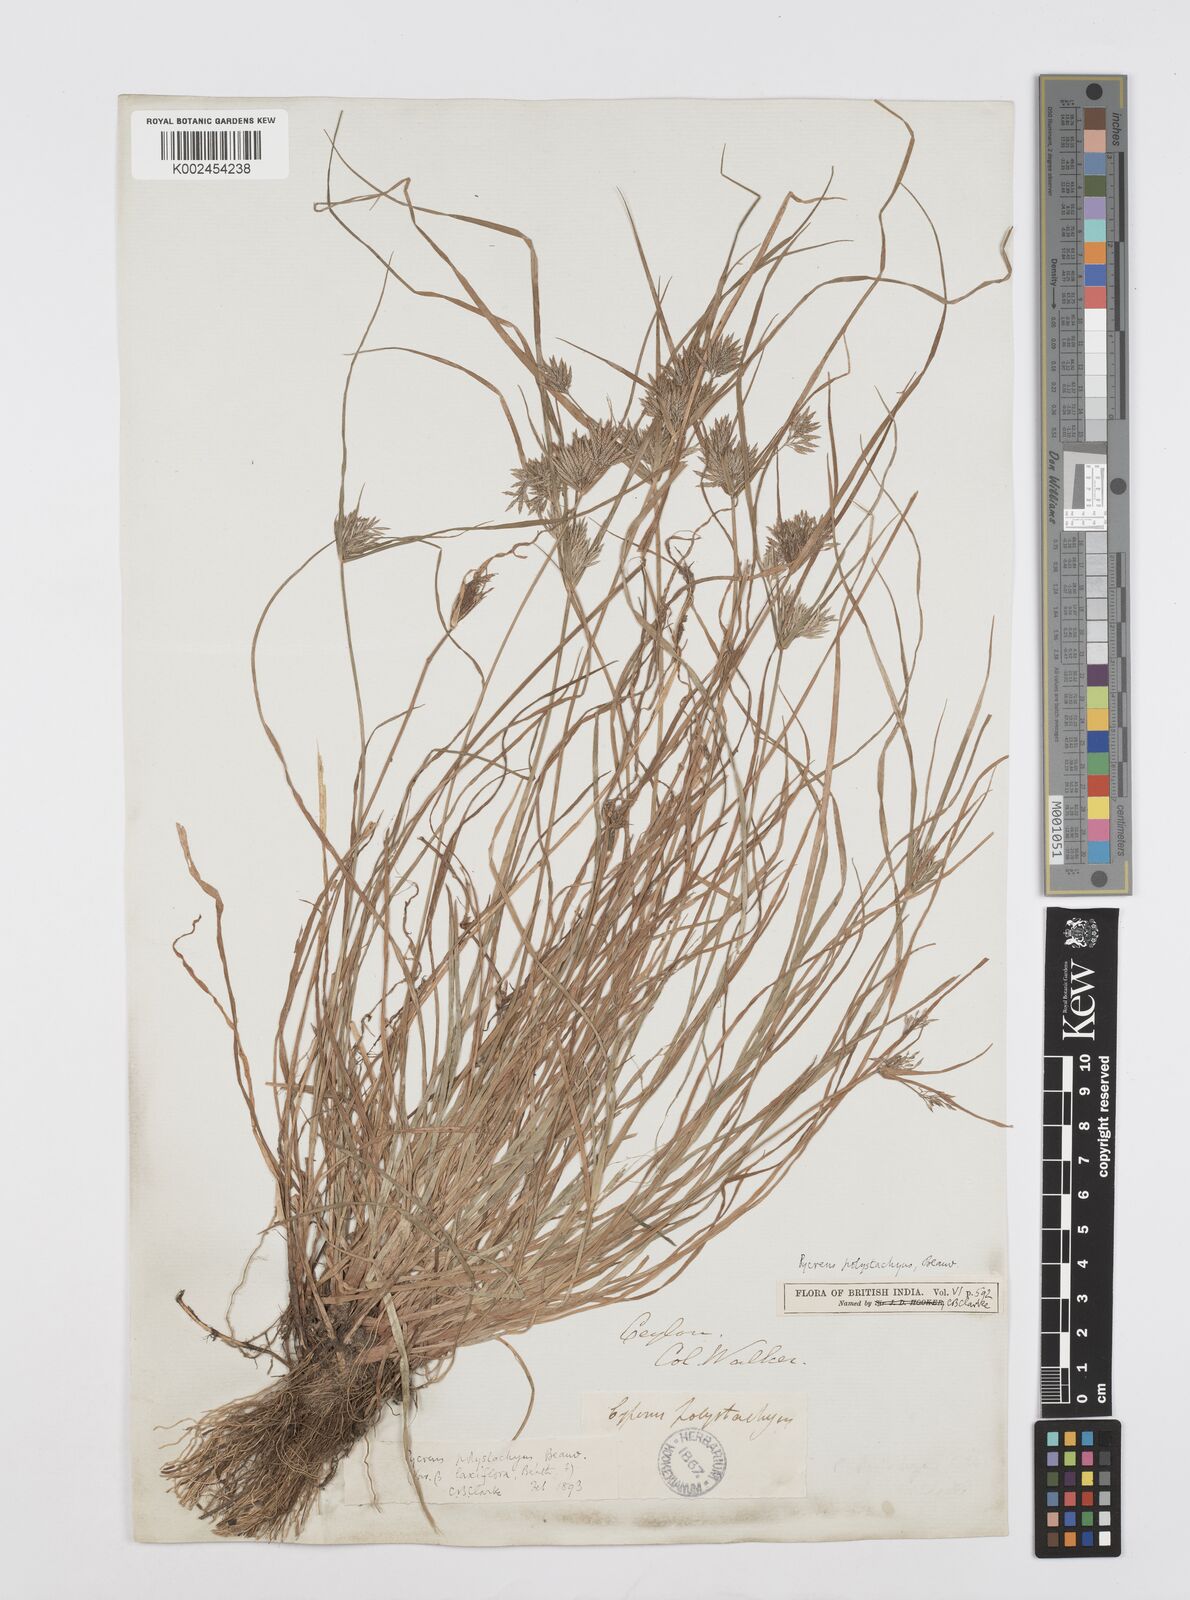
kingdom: Plantae
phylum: Tracheophyta
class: Liliopsida
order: Poales
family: Cyperaceae
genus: Cyperus
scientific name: Cyperus polystachyos
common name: Bunchy flat sedge
